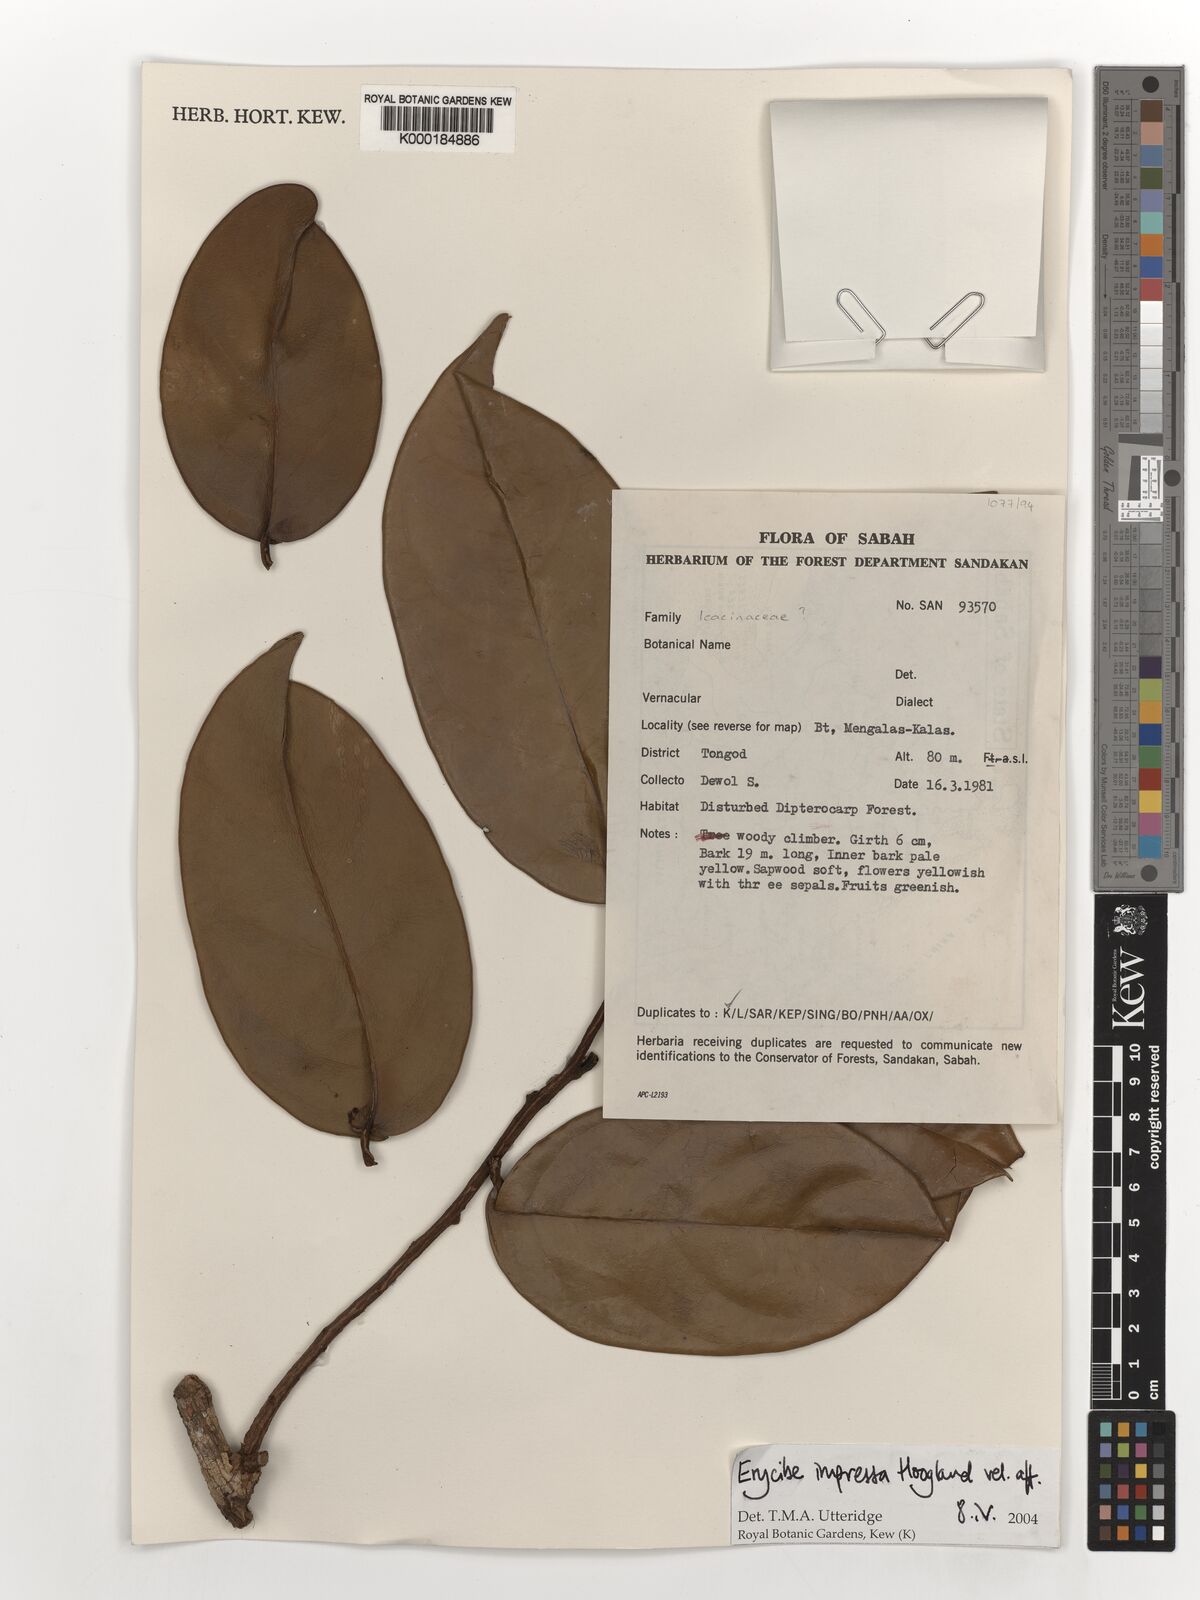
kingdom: Plantae
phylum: Tracheophyta
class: Magnoliopsida
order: Solanales
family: Convolvulaceae
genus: Erycibe
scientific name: Erycibe
